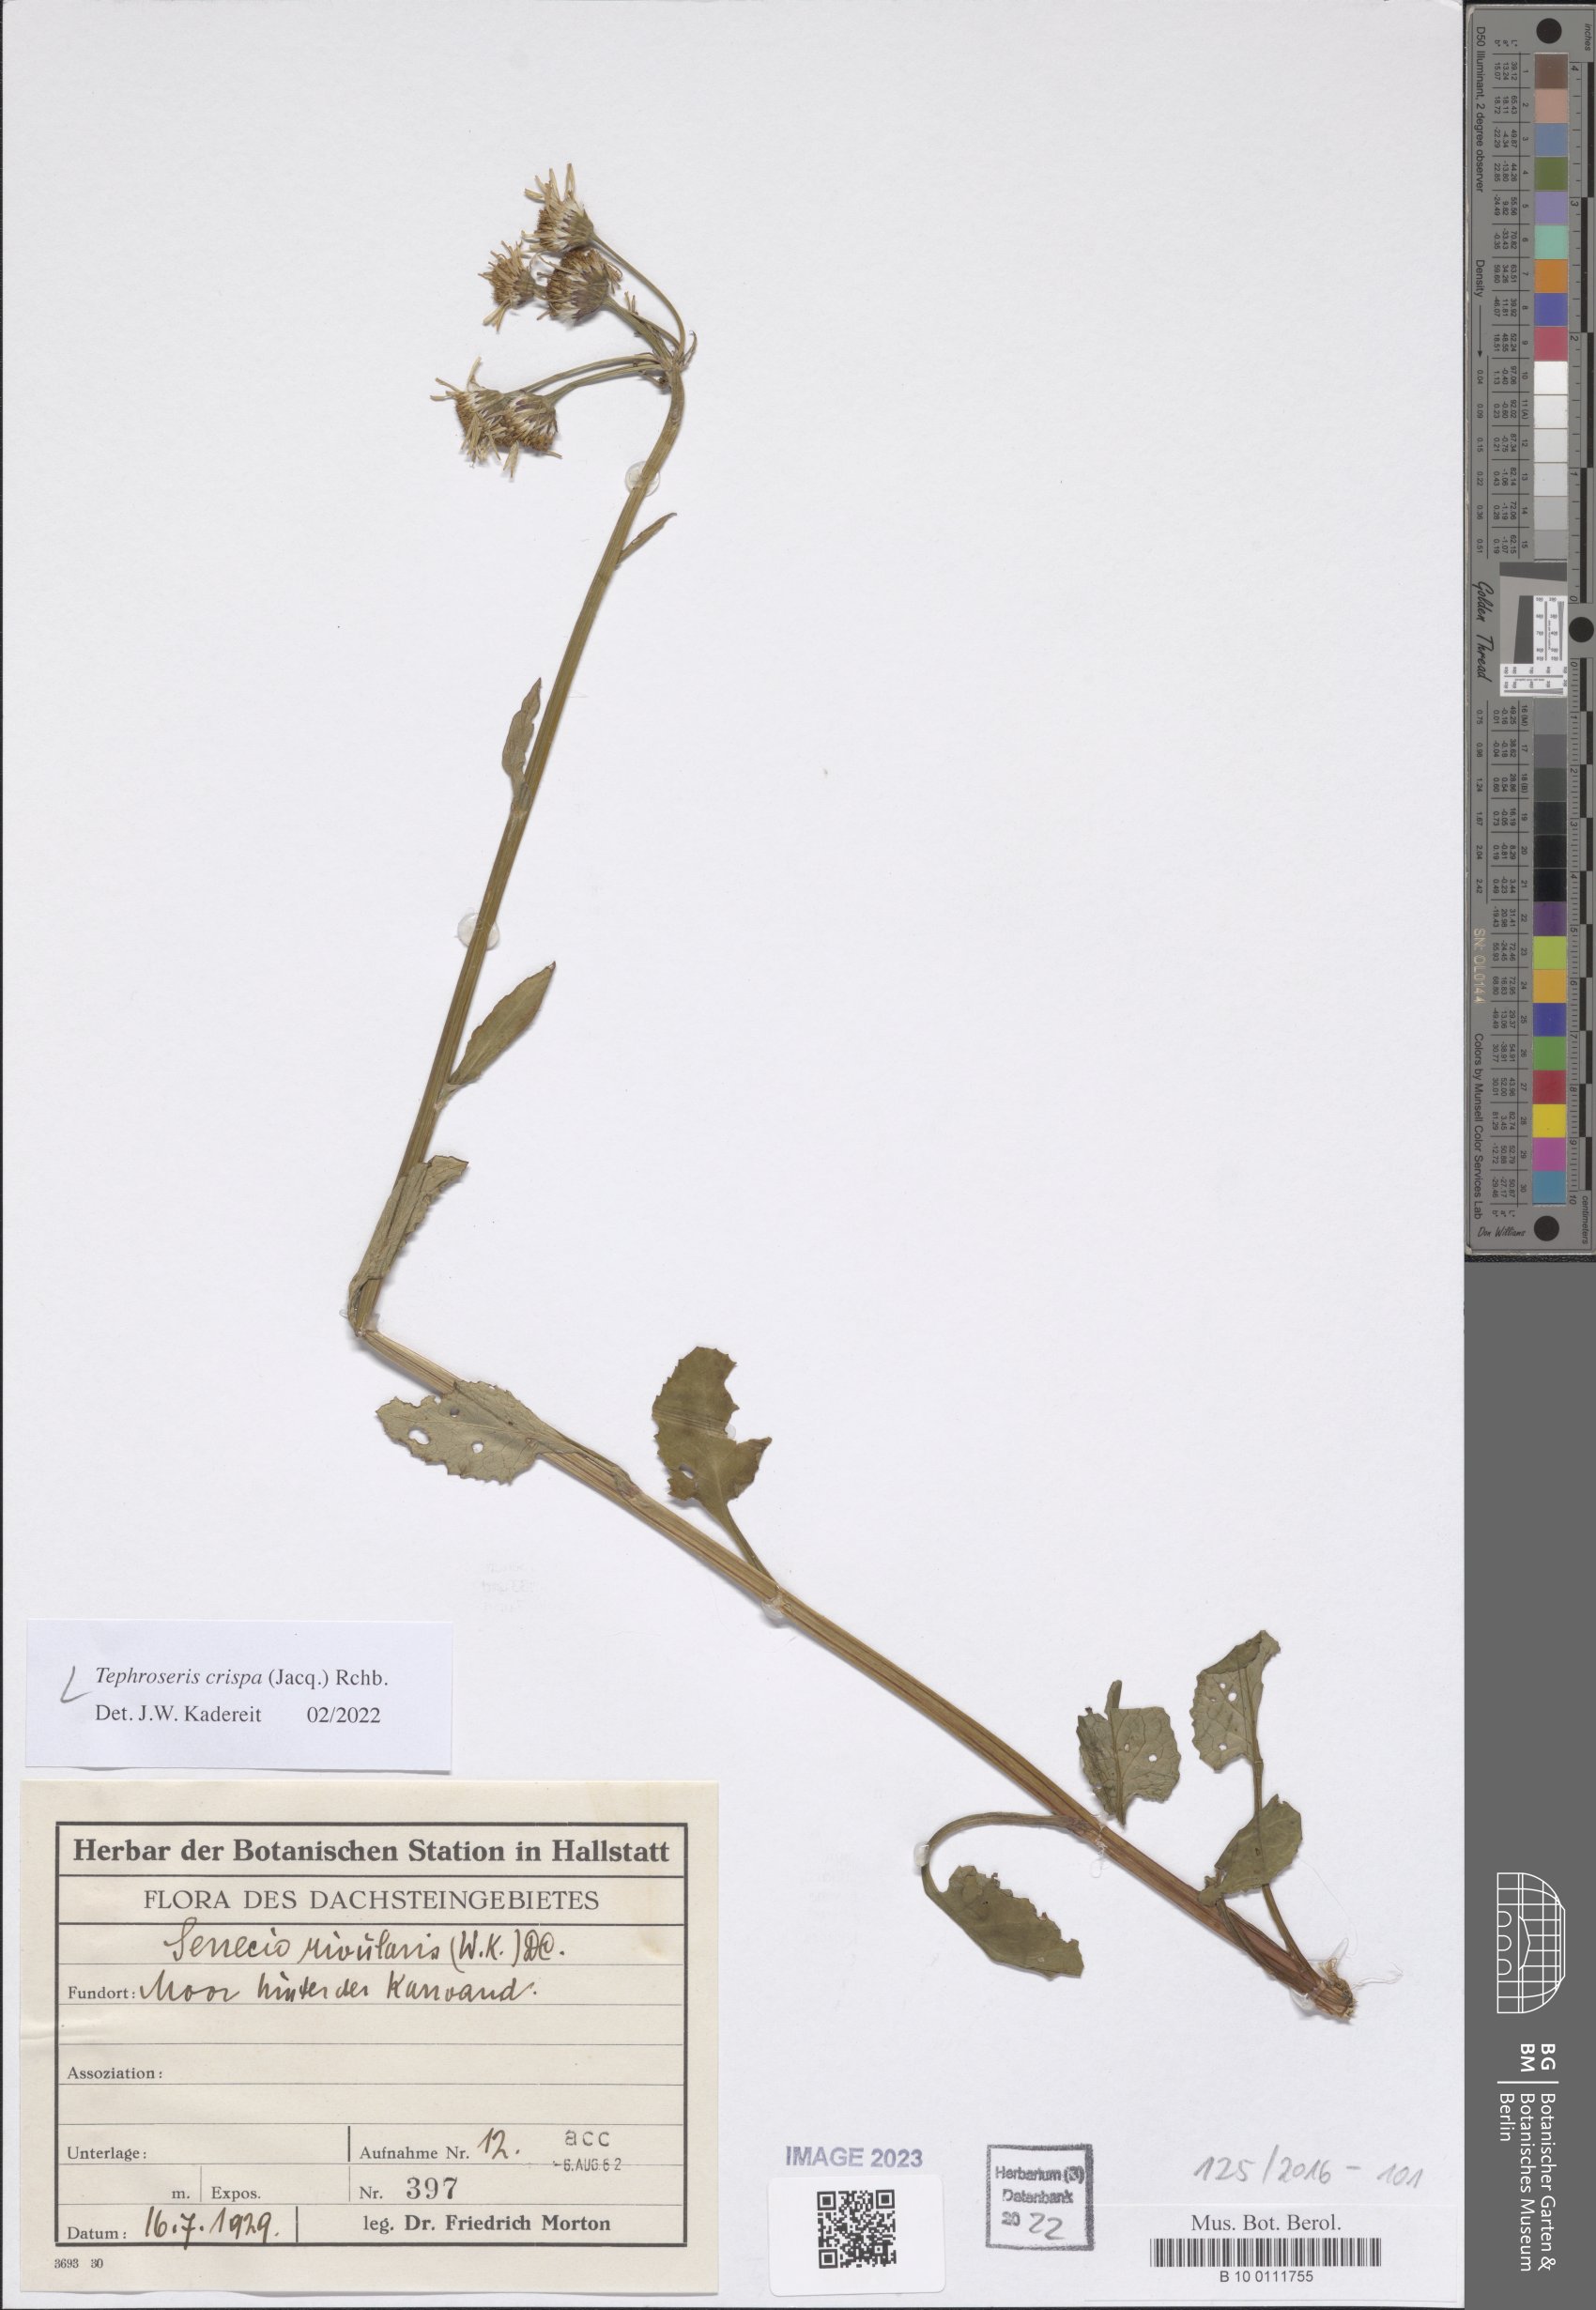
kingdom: Plantae
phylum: Tracheophyta
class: Magnoliopsida
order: Asterales
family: Asteraceae
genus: Tephroseris
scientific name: Tephroseris crispa
